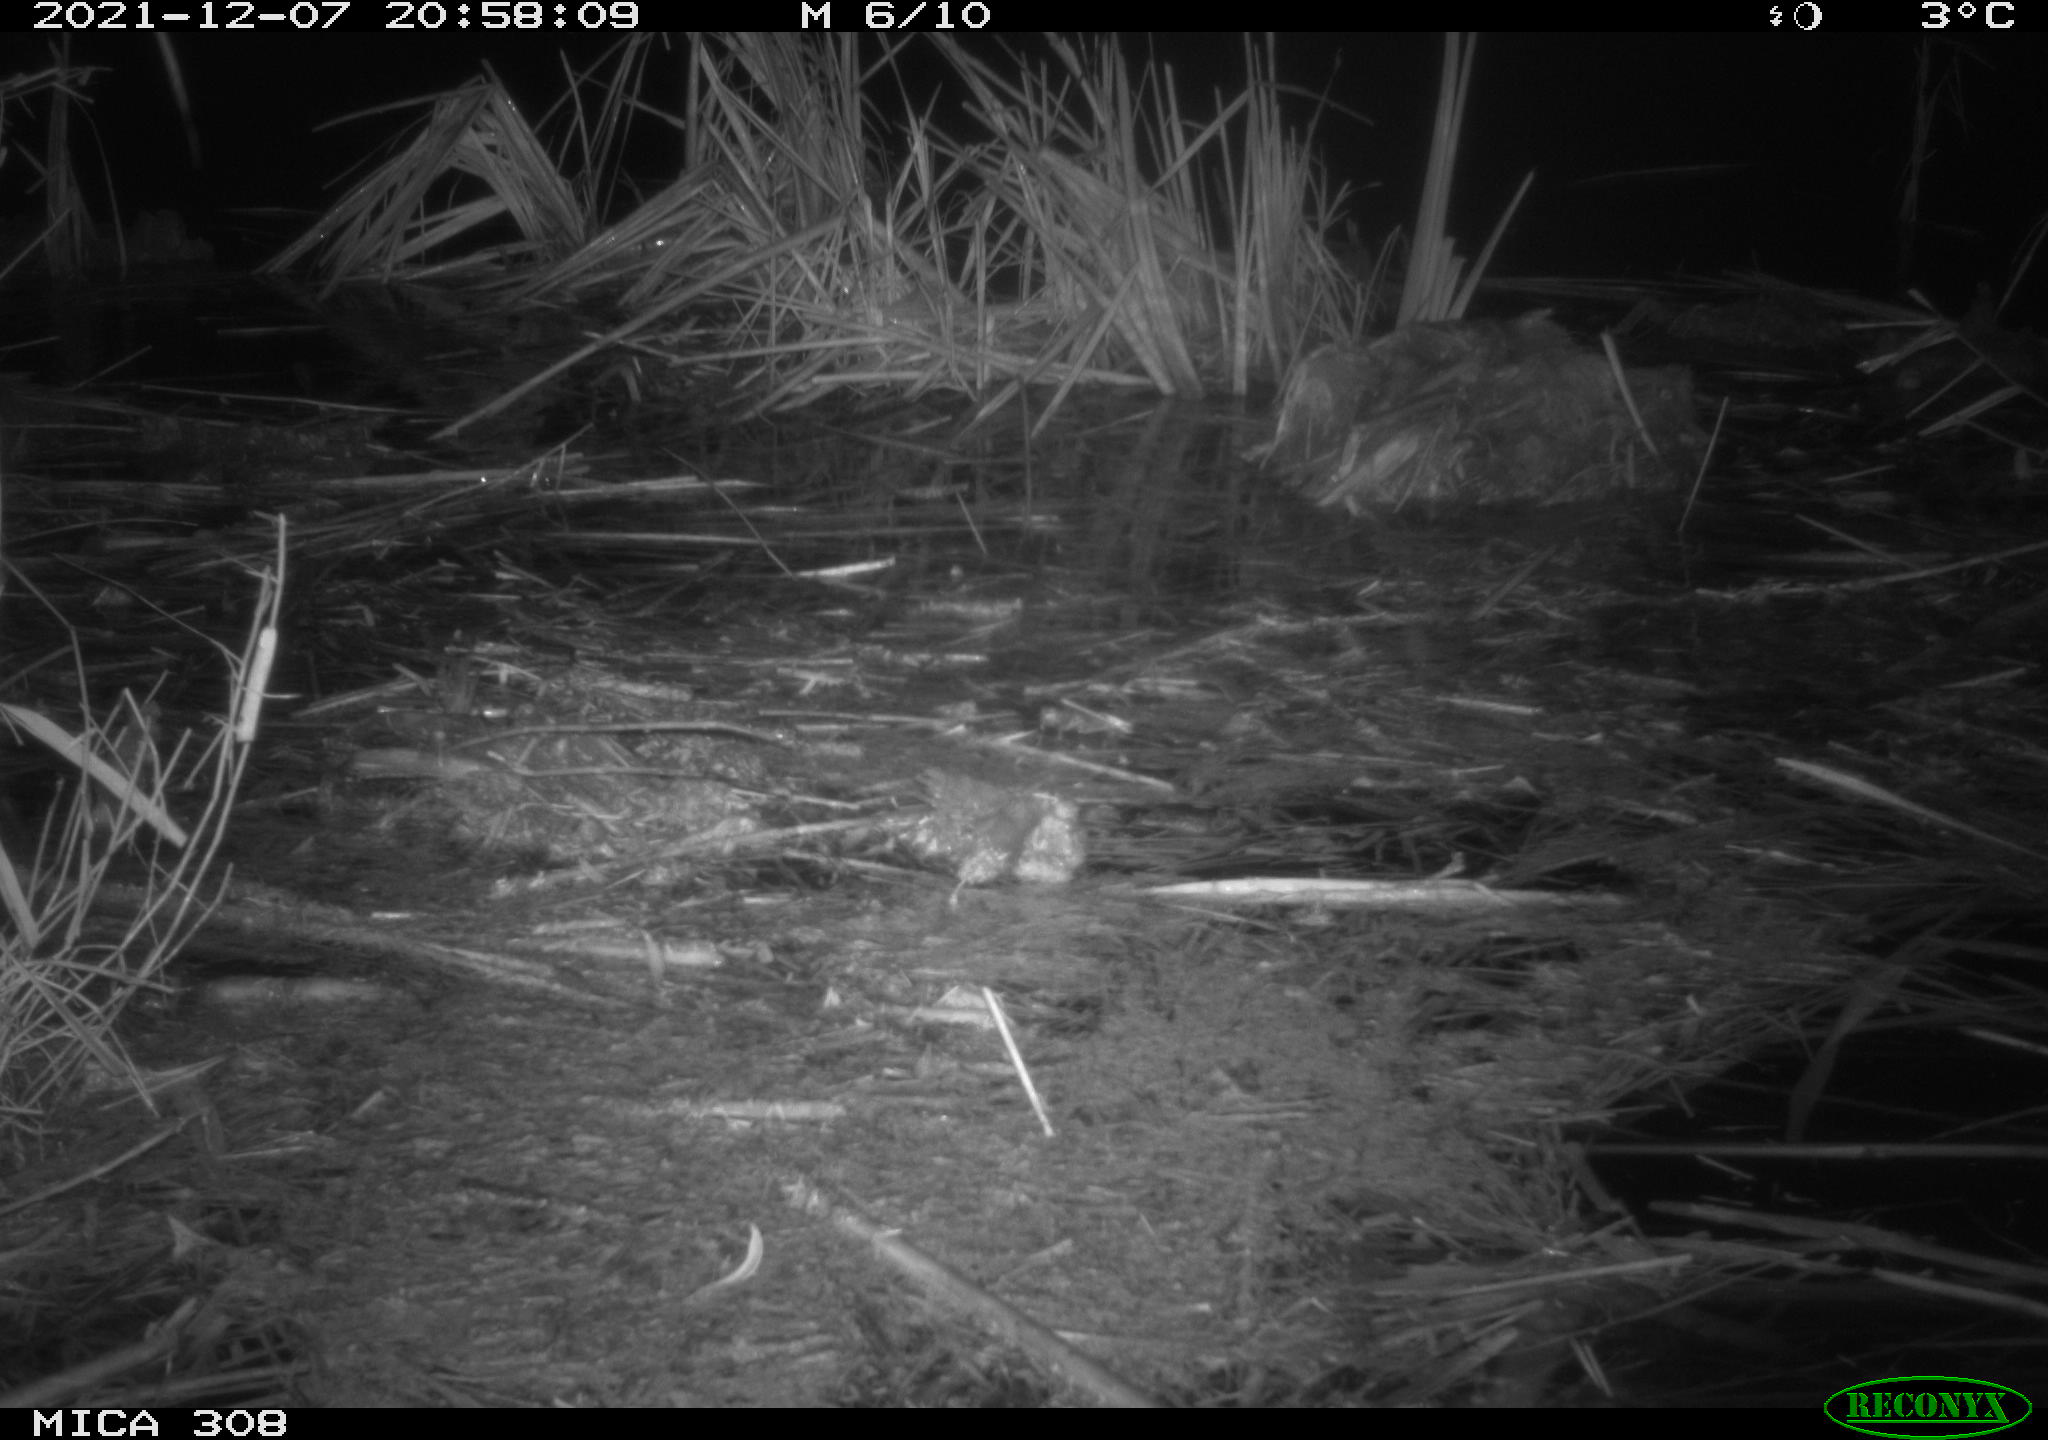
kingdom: Animalia
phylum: Chordata
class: Mammalia
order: Rodentia
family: Muridae
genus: Rattus
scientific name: Rattus norvegicus
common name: Brown rat
